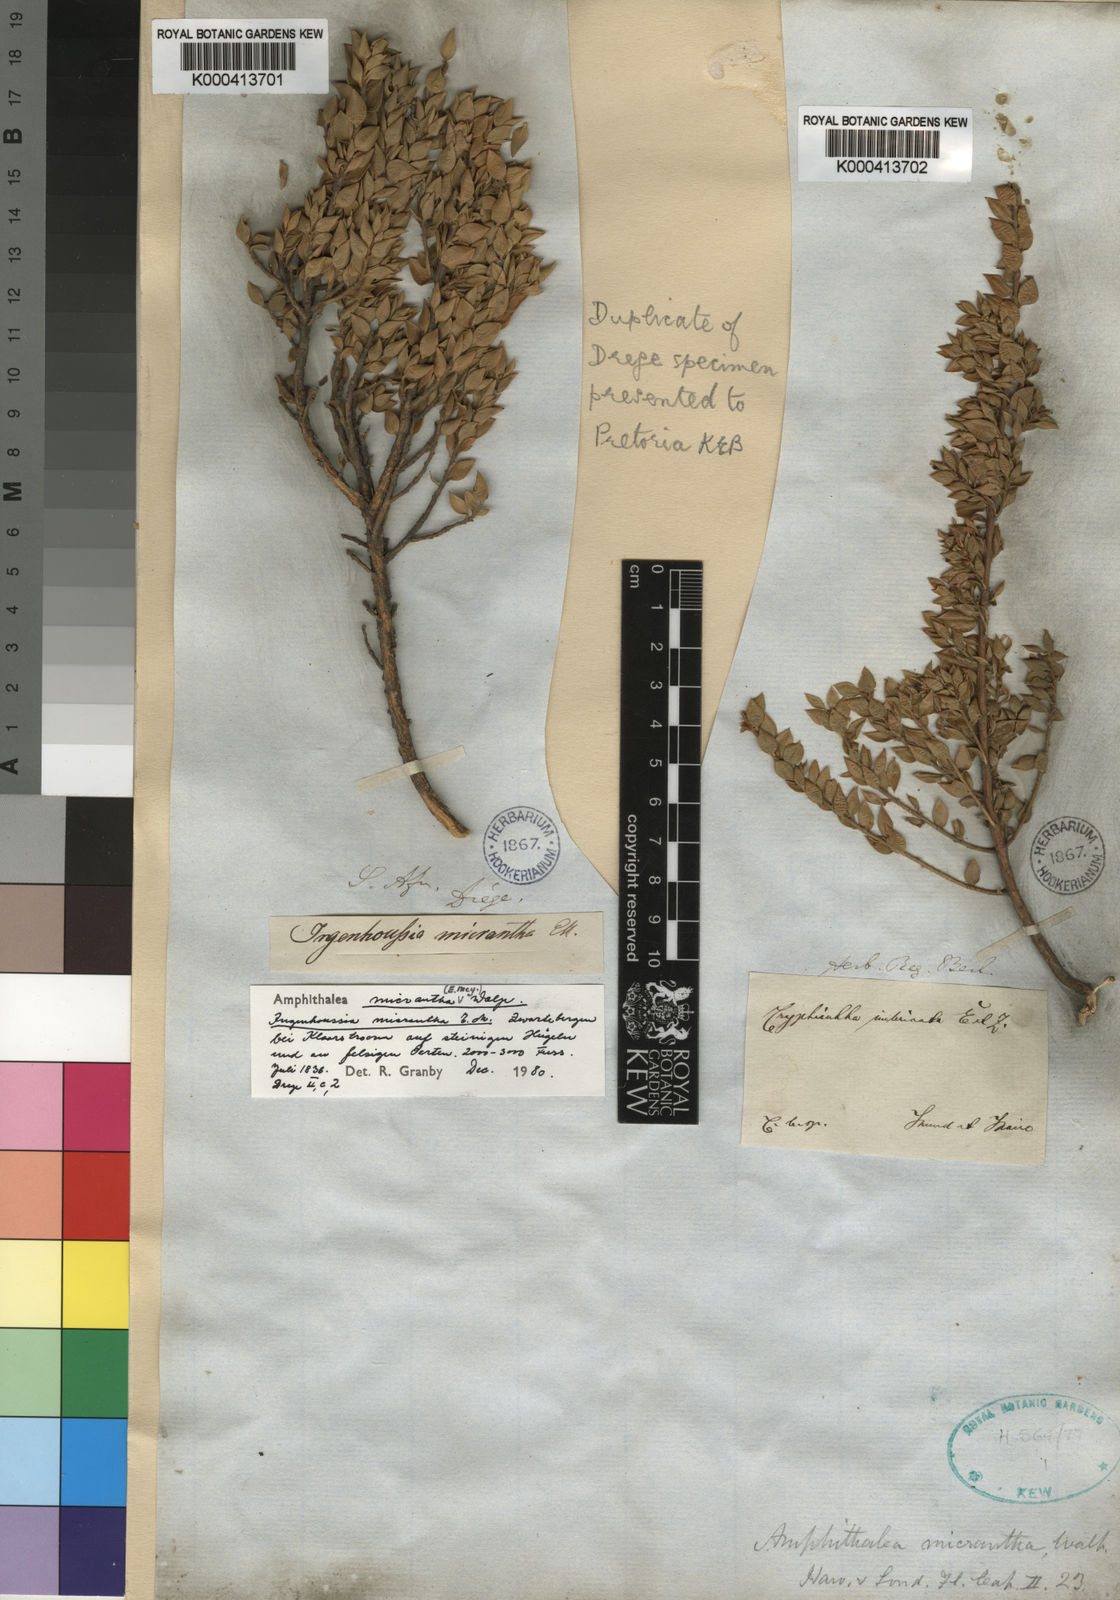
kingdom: Plantae
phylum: Tracheophyta
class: Magnoliopsida
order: Fabales
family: Fabaceae
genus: Amphithalea
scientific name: Amphithalea micrantha
